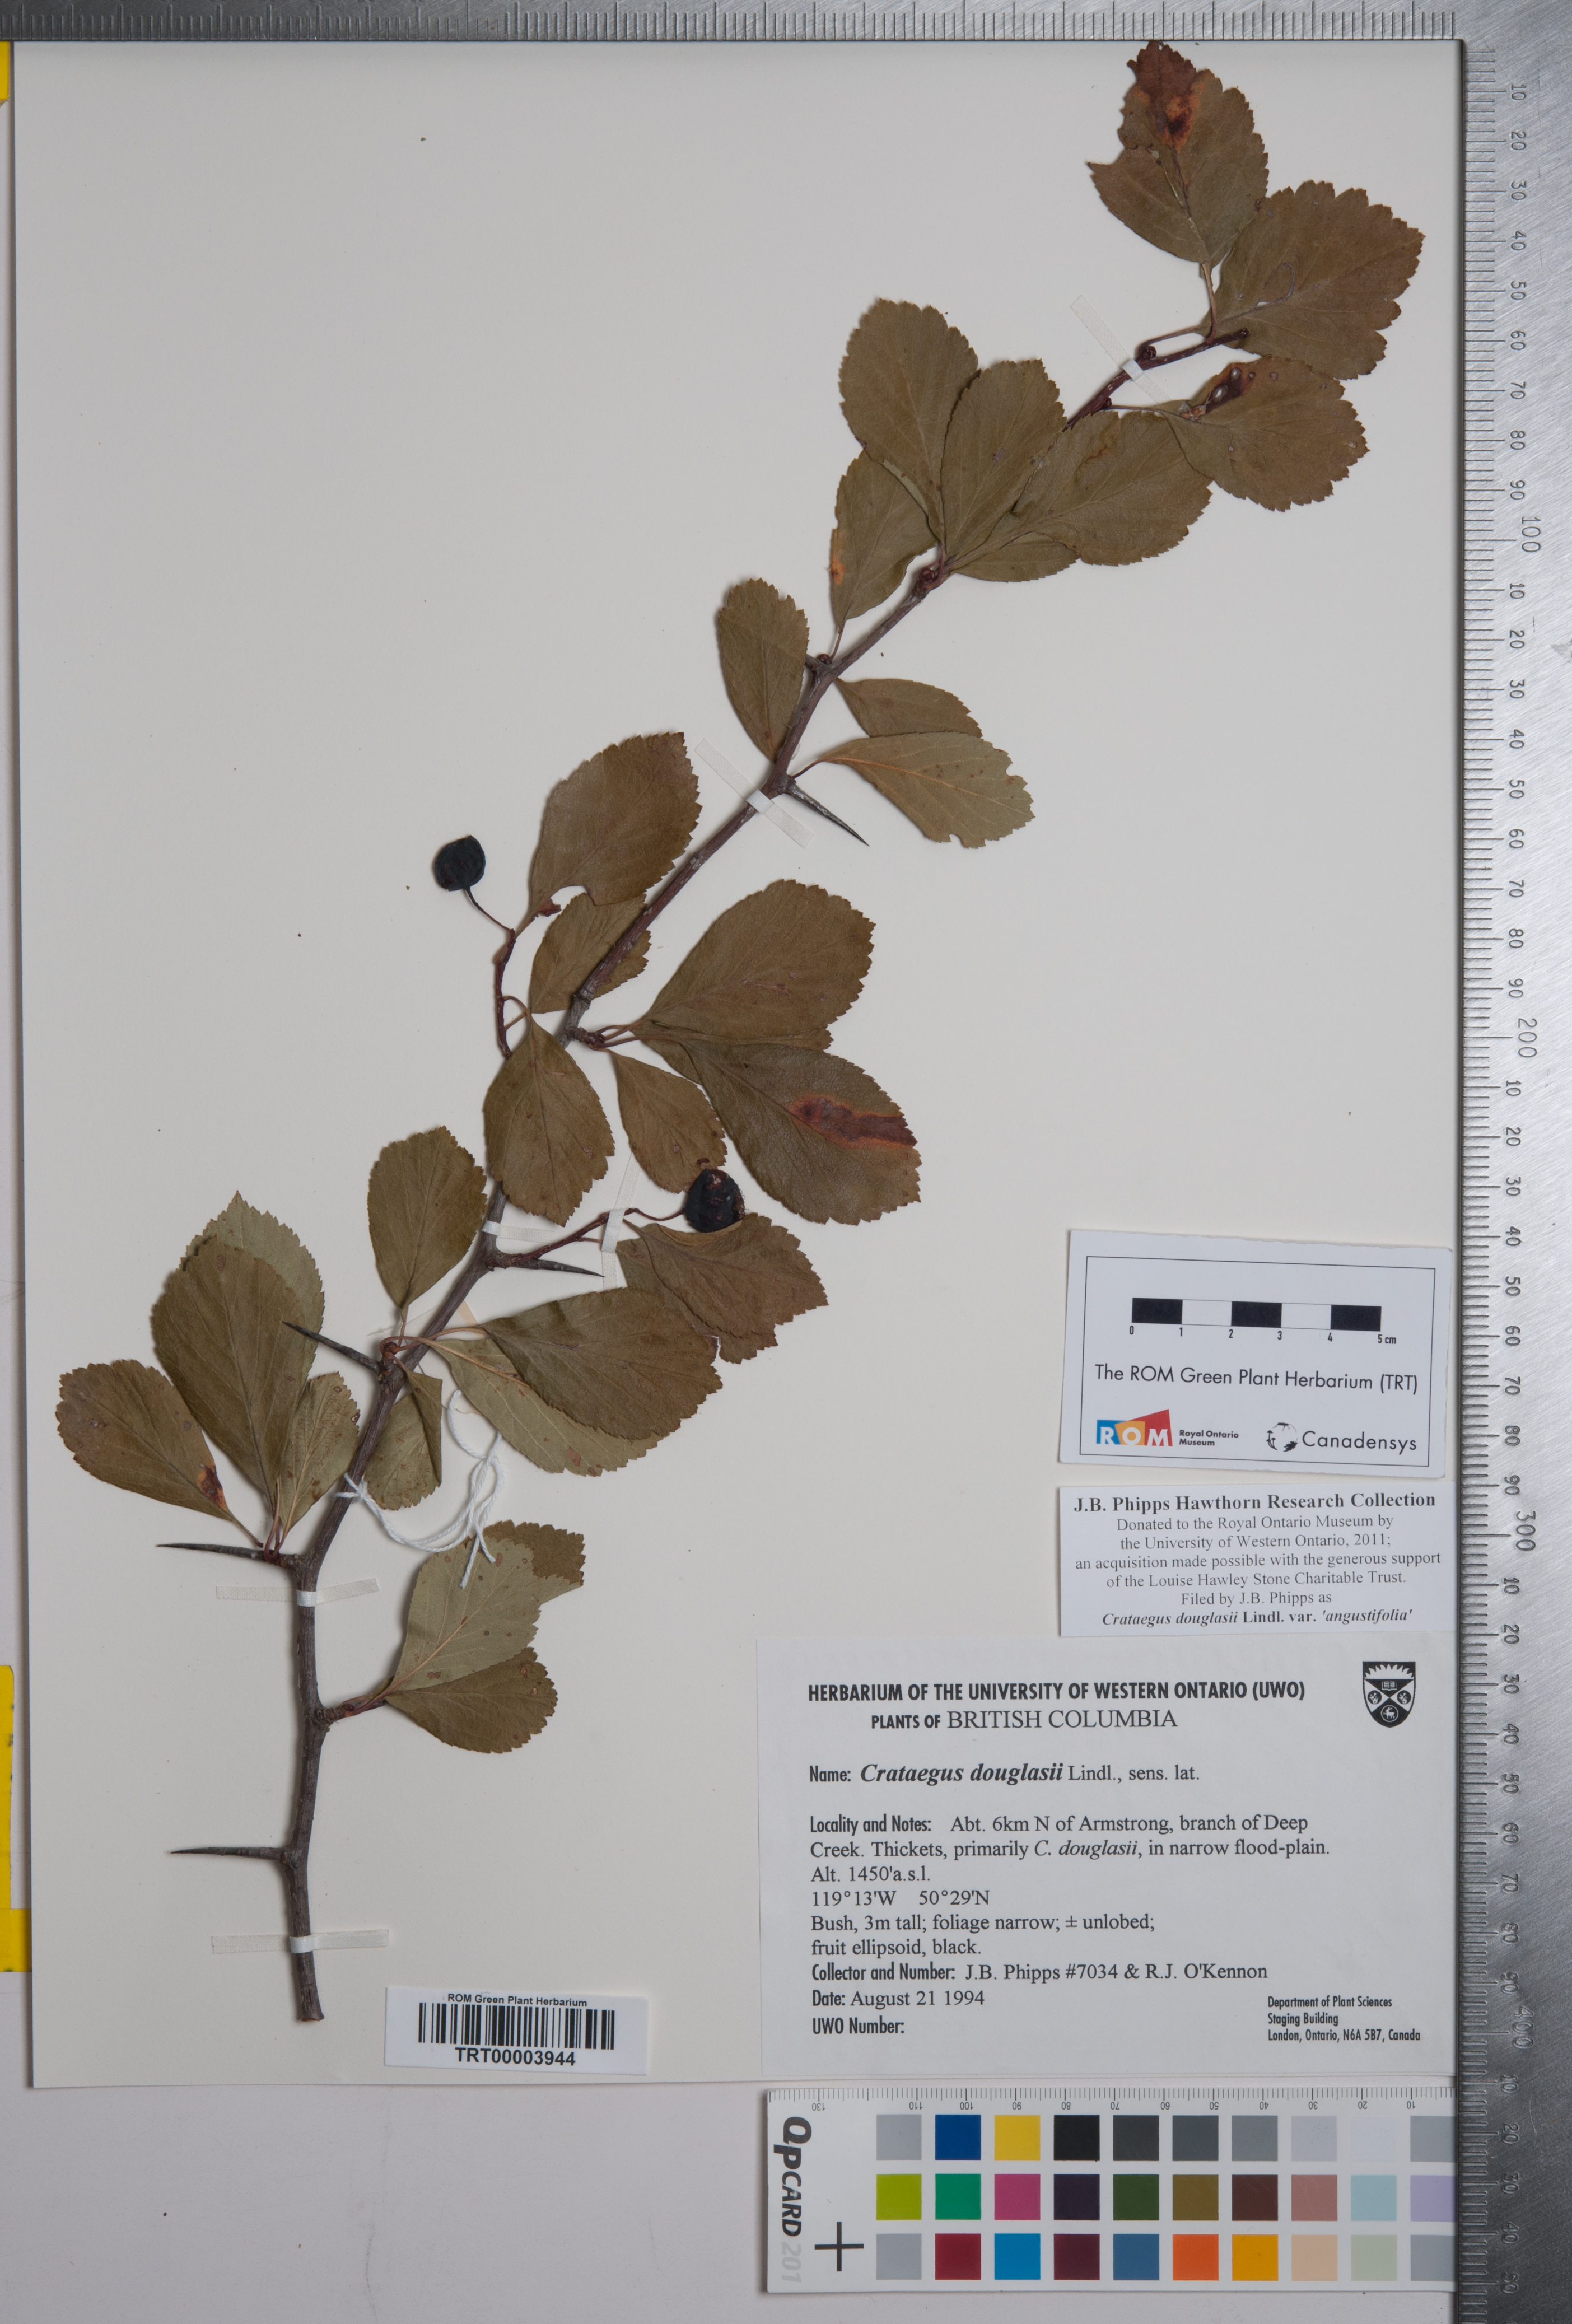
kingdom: Plantae
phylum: Tracheophyta
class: Magnoliopsida
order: Rosales
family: Rosaceae
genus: Crataegus
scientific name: Crataegus douglasii
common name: Black hawthorn
